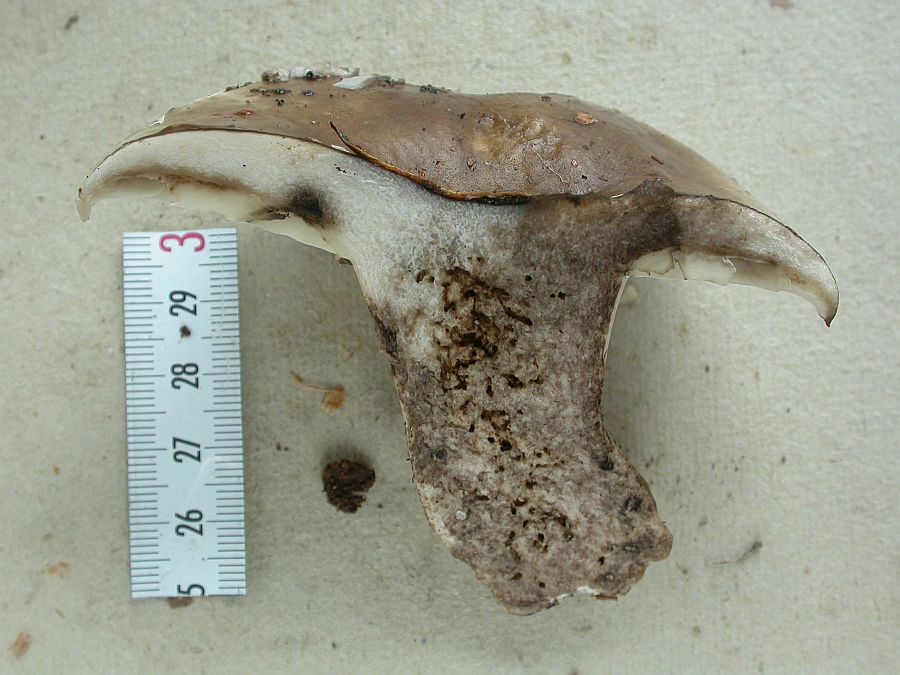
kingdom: Fungi
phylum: Basidiomycota
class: Agaricomycetes
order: Russulales
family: Russulaceae
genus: Russula
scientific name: Russula densifolia
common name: tætbladet skørhat
